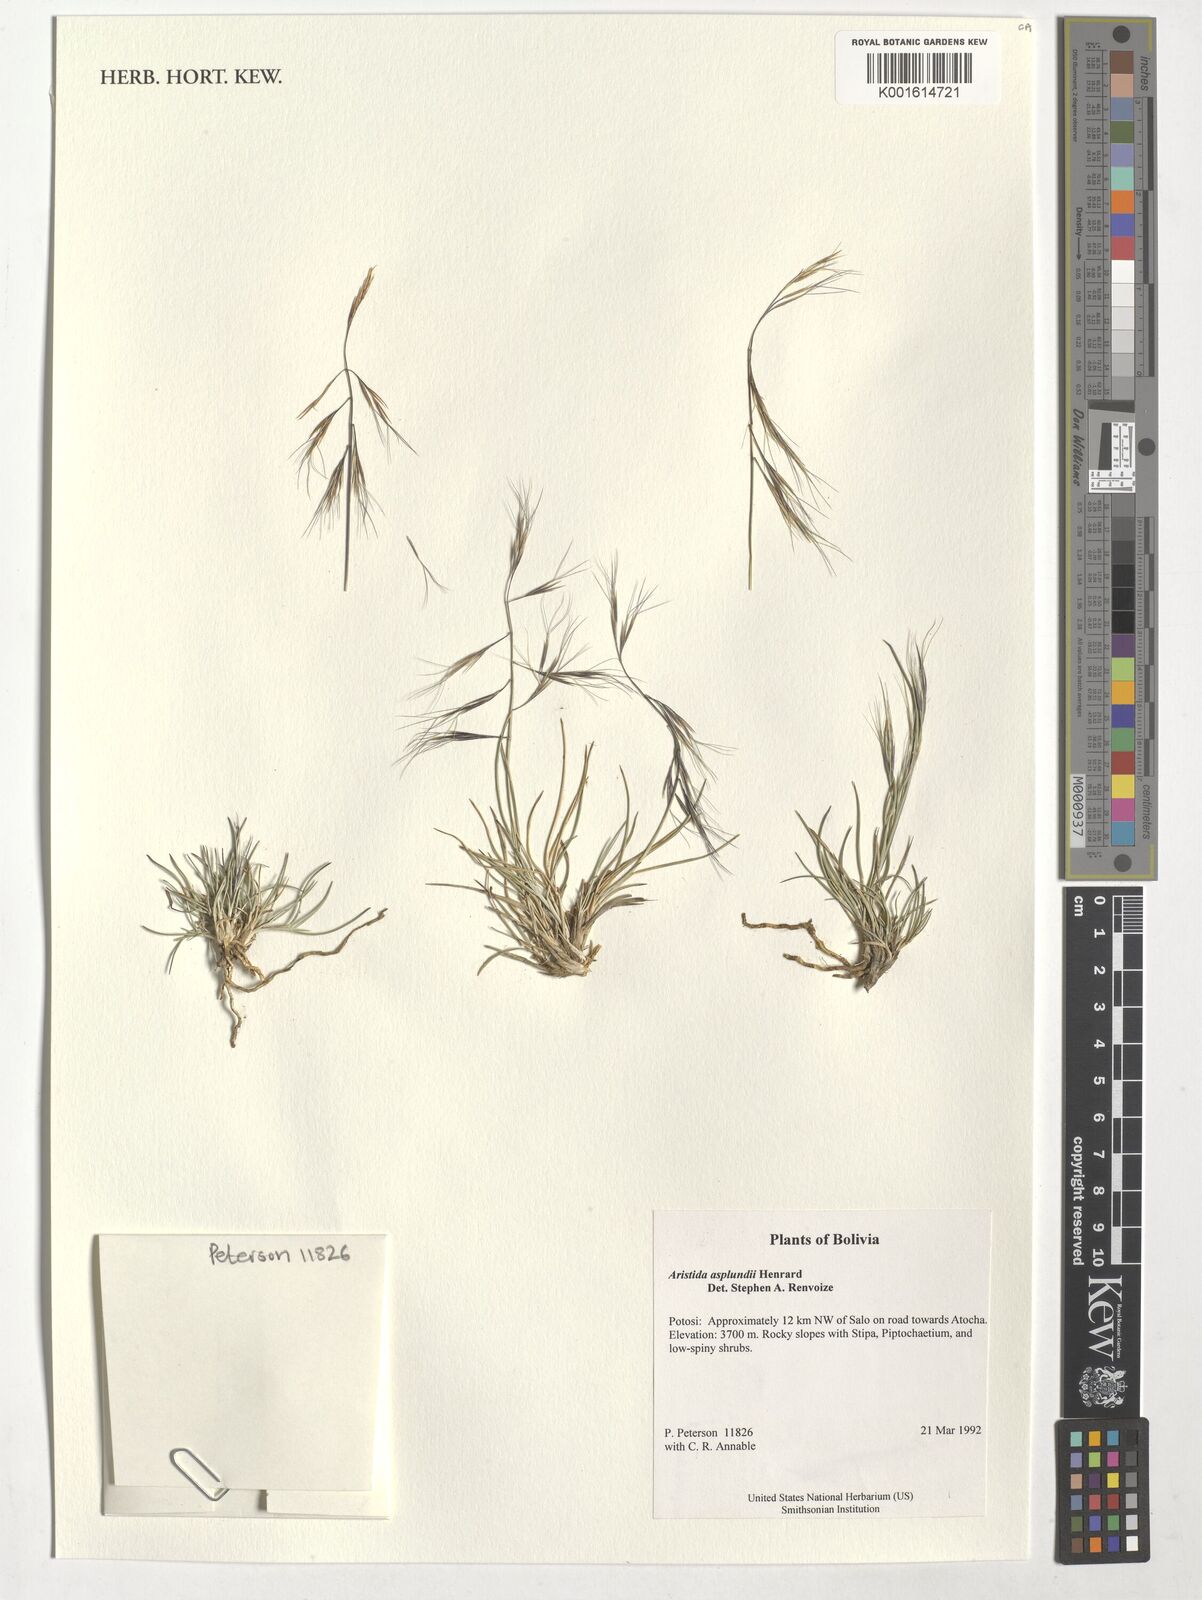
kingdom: Plantae
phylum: Tracheophyta
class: Liliopsida
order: Poales
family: Poaceae
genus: Aristida
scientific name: Aristida asplundii
